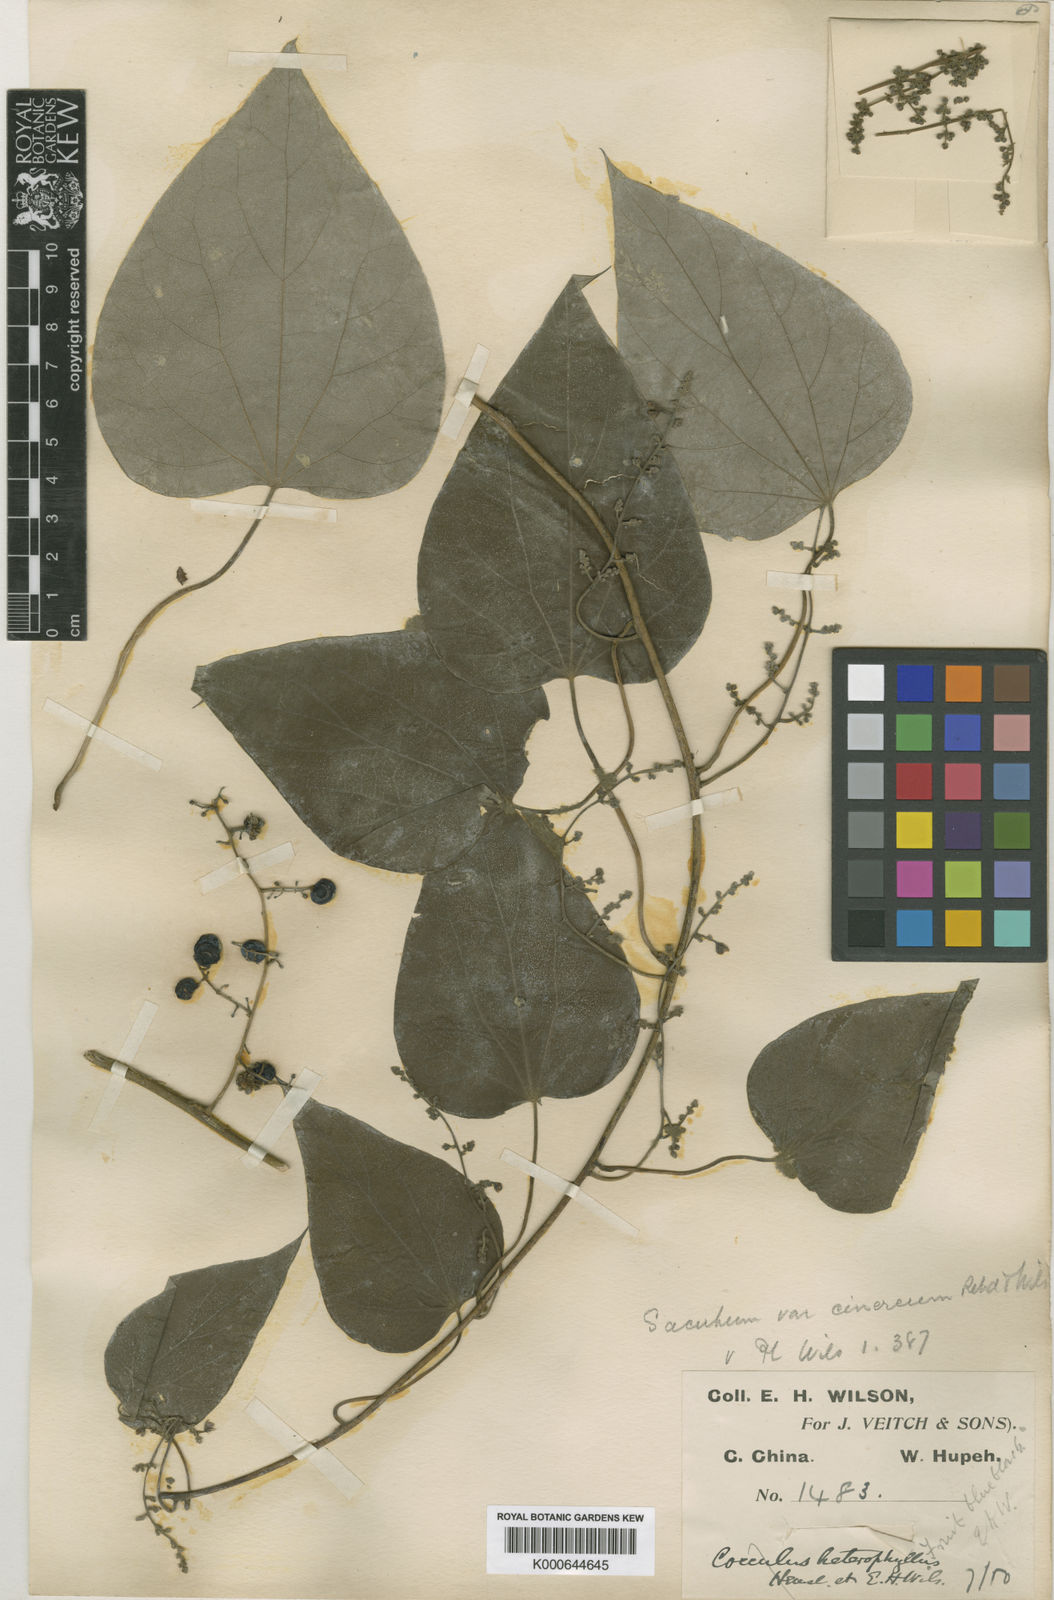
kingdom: Plantae
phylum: Tracheophyta
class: Magnoliopsida
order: Ranunculales
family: Menispermaceae
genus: Sinomenium
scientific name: Sinomenium acutum
